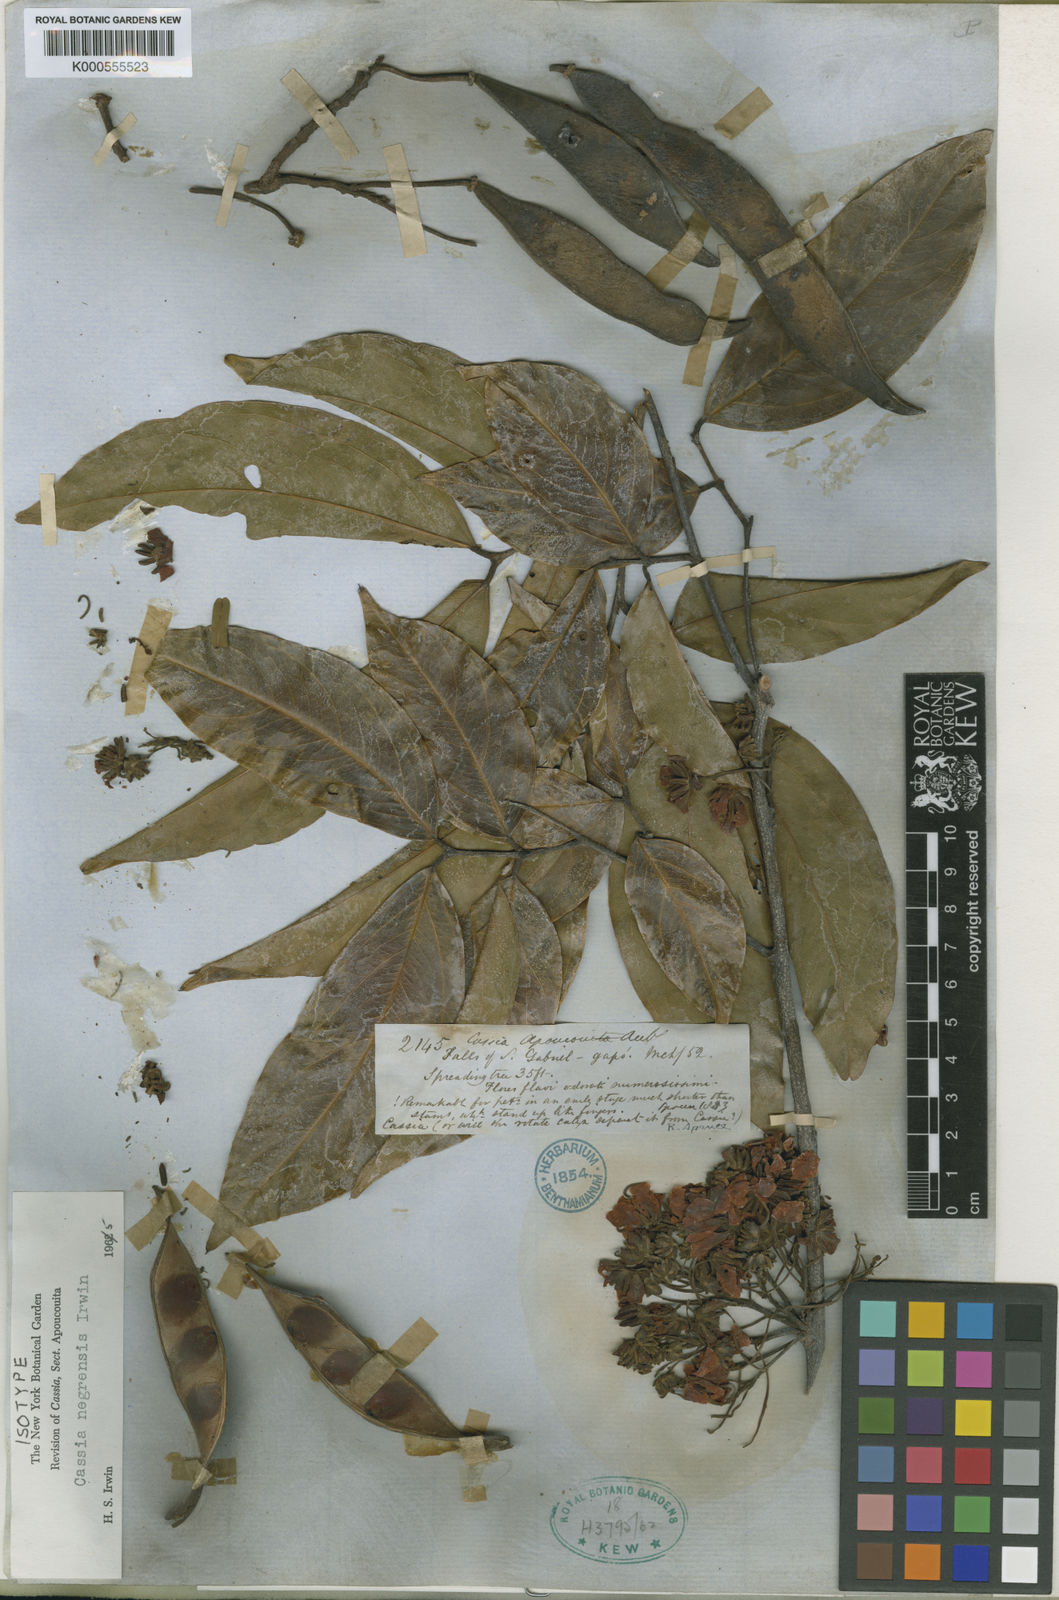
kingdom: Plantae
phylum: Tracheophyta
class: Magnoliopsida
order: Fabales
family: Fabaceae
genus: Chamaecrista
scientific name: Chamaecrista negrensis
